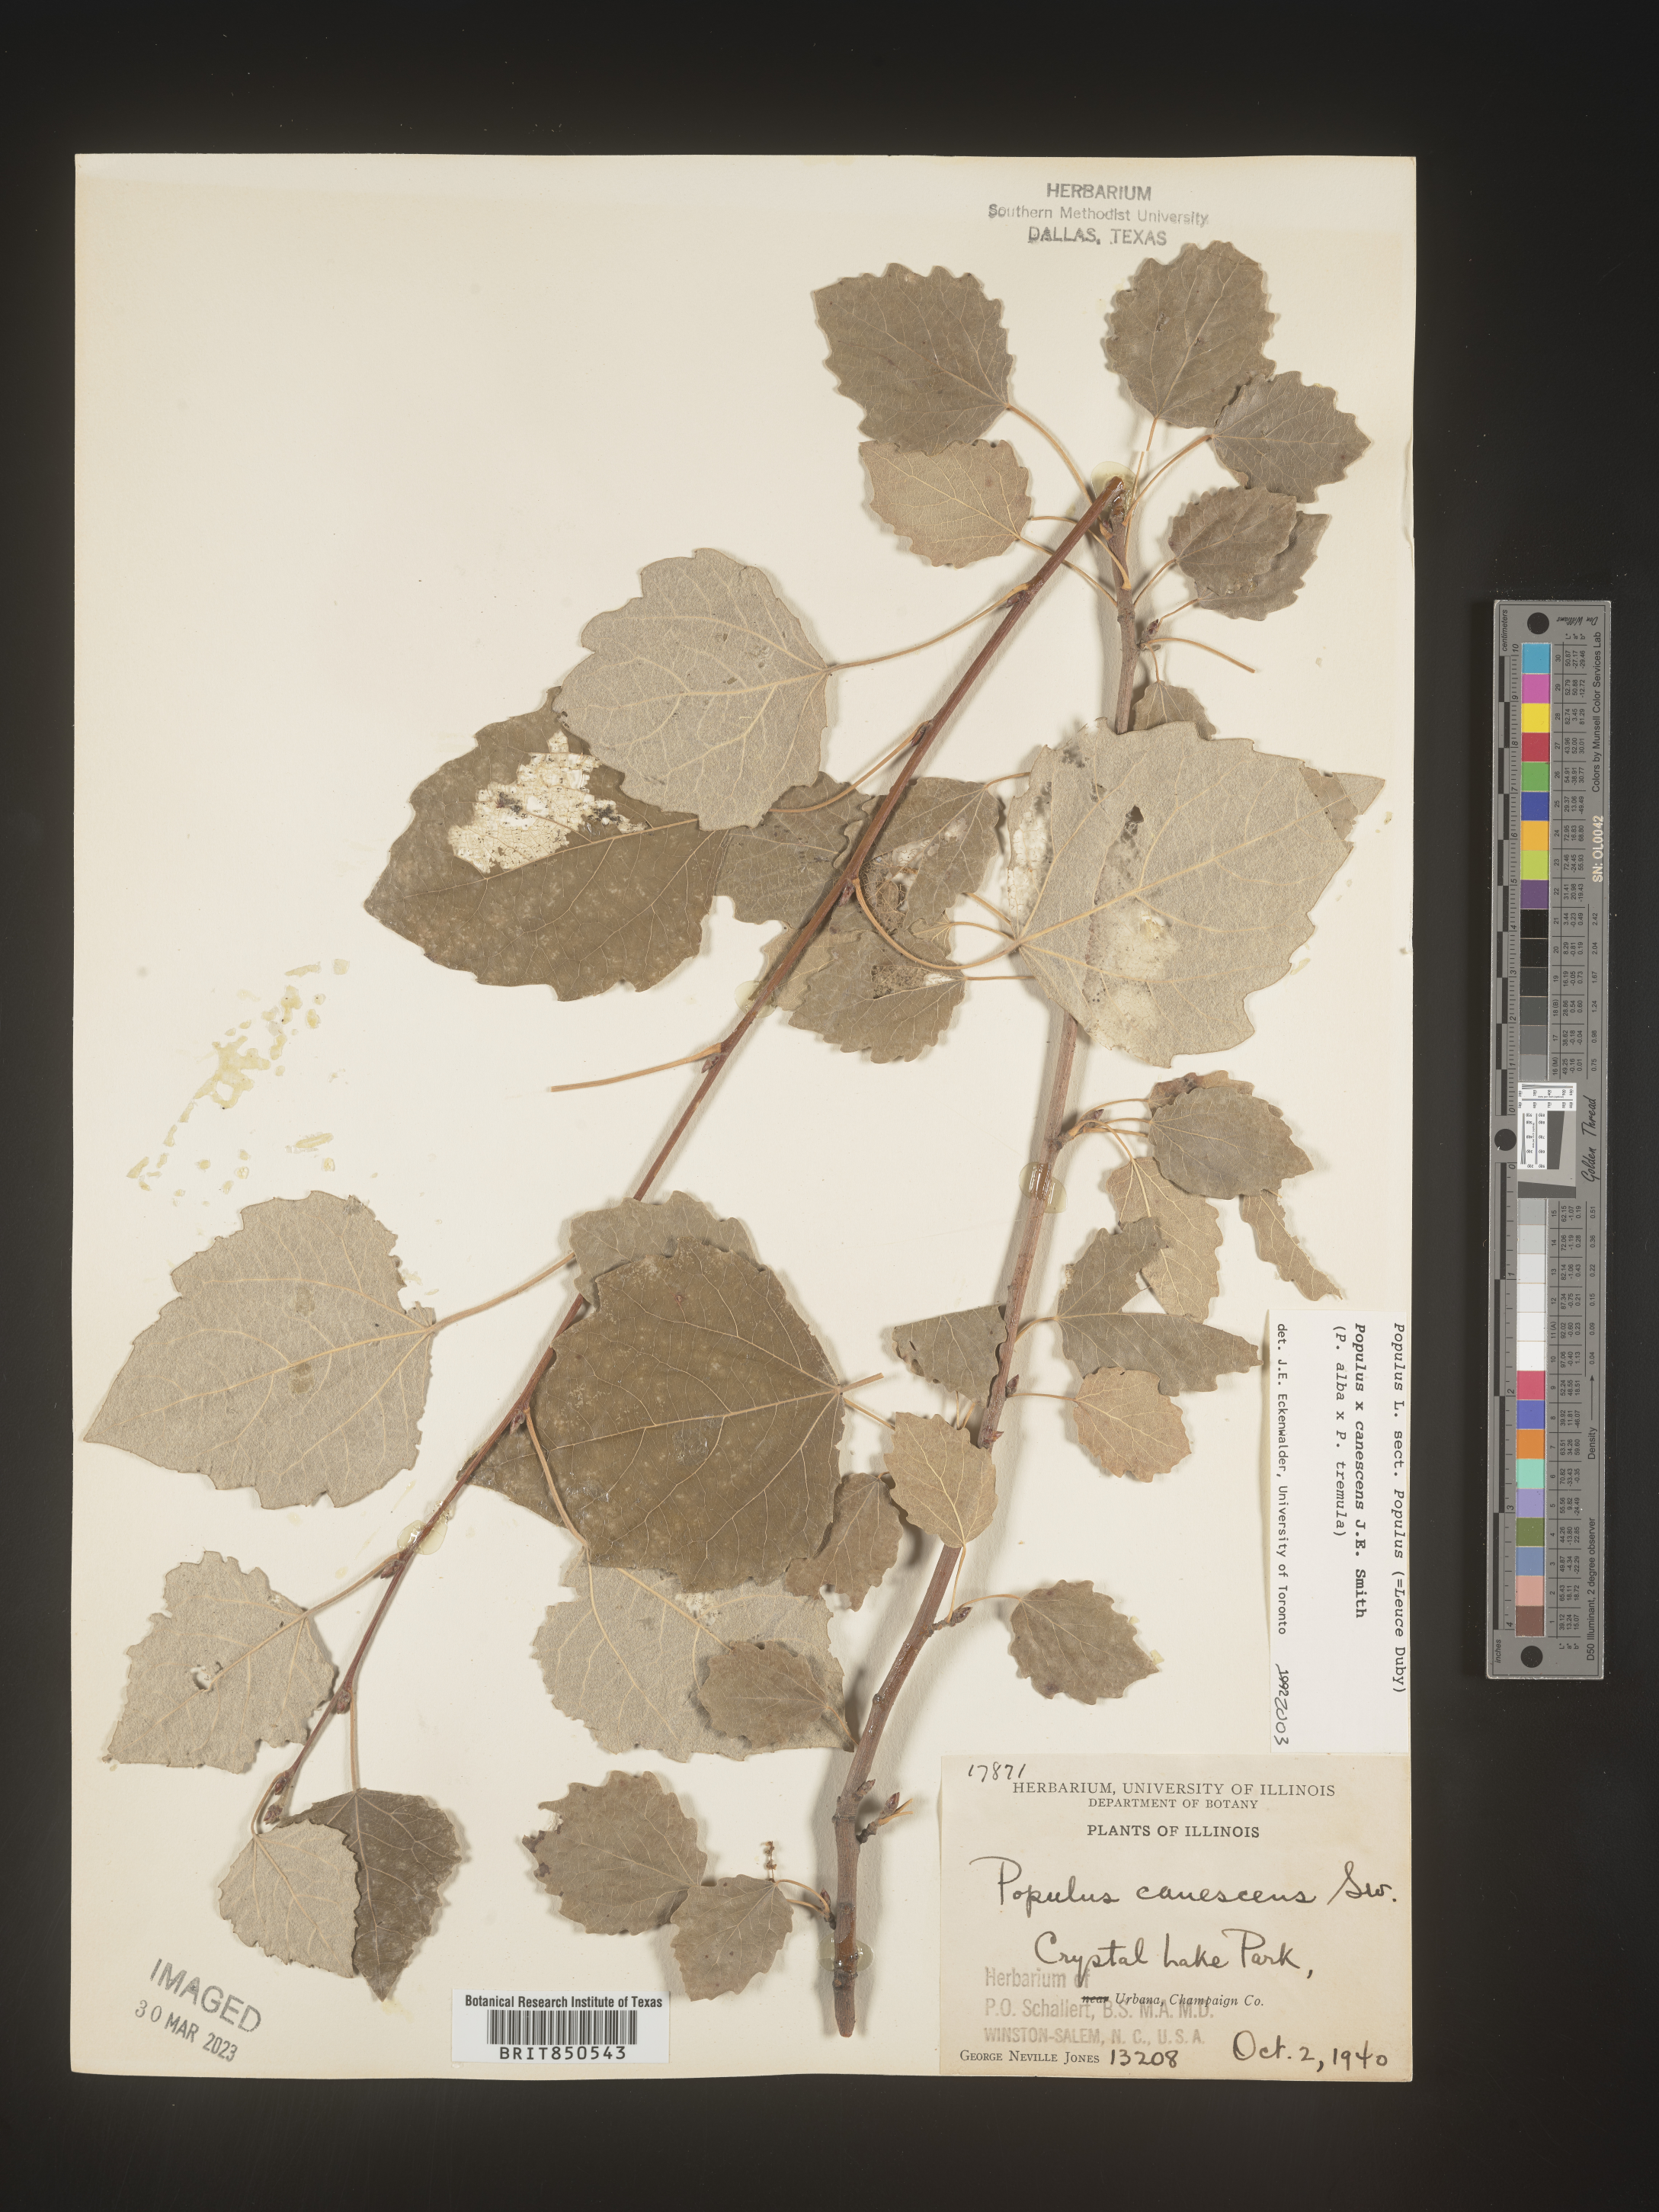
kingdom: Plantae
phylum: Tracheophyta
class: Magnoliopsida
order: Malpighiales
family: Salicaceae
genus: Populus
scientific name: Populus
